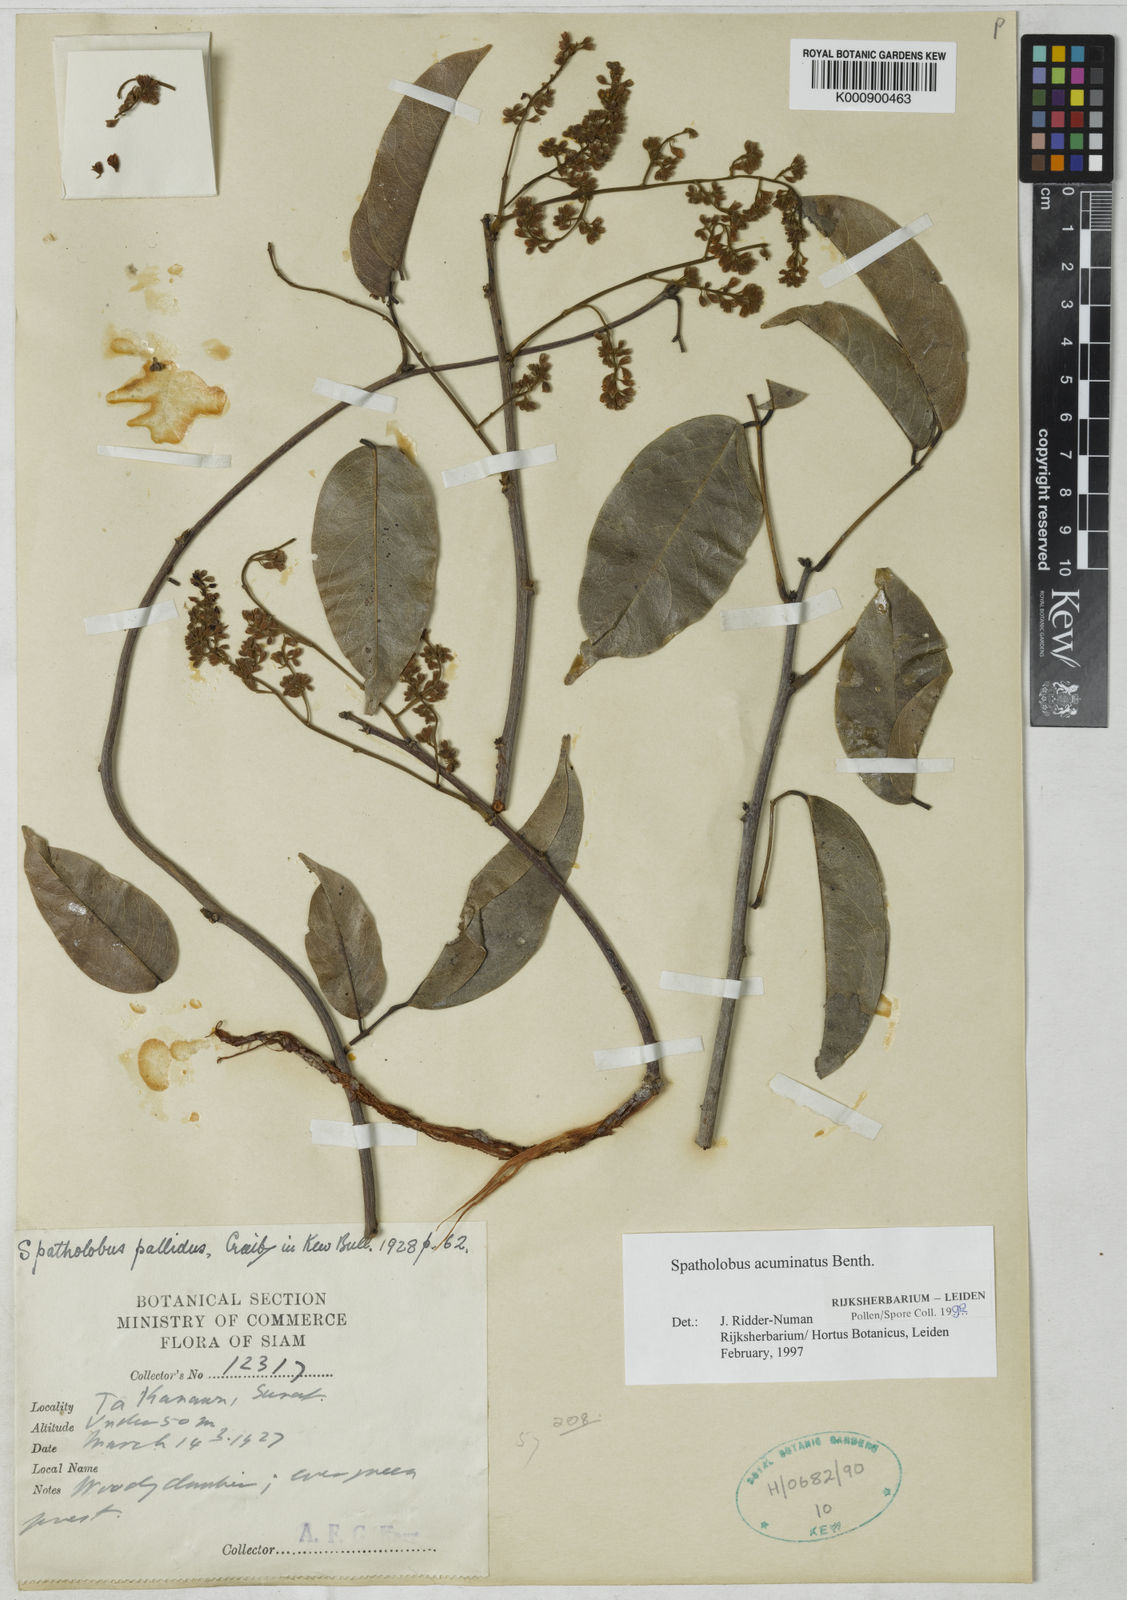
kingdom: Plantae
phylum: Tracheophyta
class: Magnoliopsida
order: Fabales
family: Fabaceae
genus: Spatholobus
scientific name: Spatholobus acuminatus
